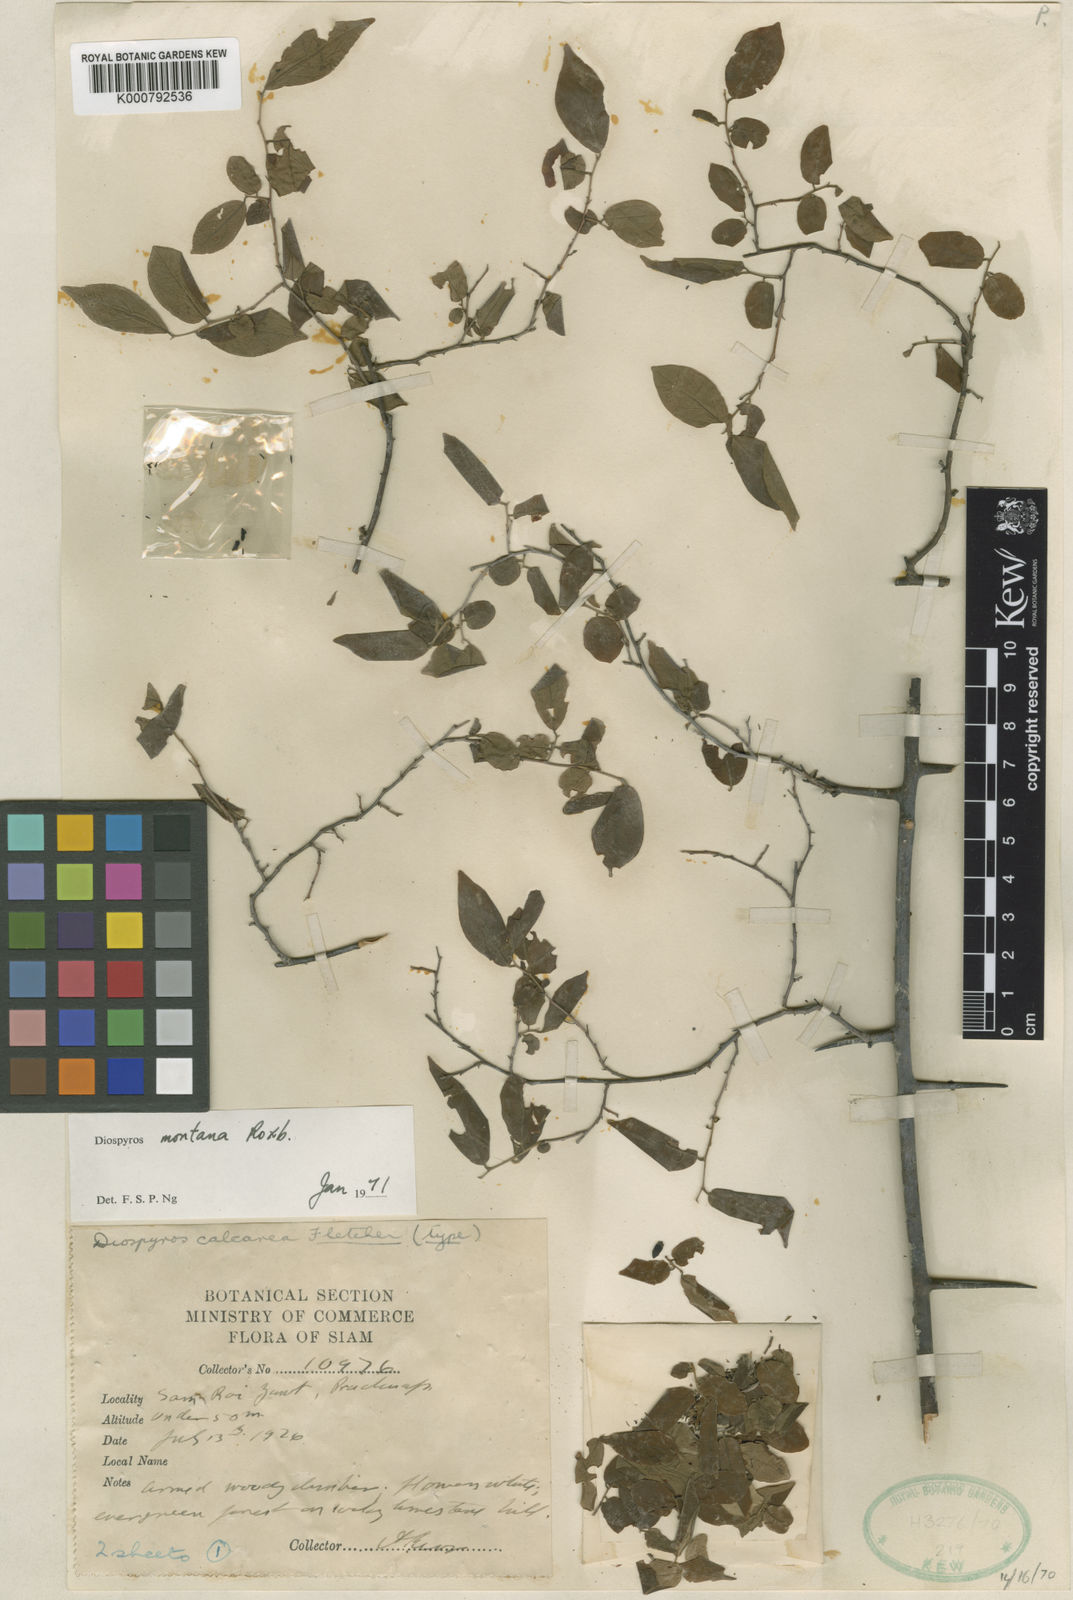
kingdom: Plantae
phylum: Tracheophyta
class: Magnoliopsida
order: Ericales
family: Ebenaceae
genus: Diospyros
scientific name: Diospyros montana
